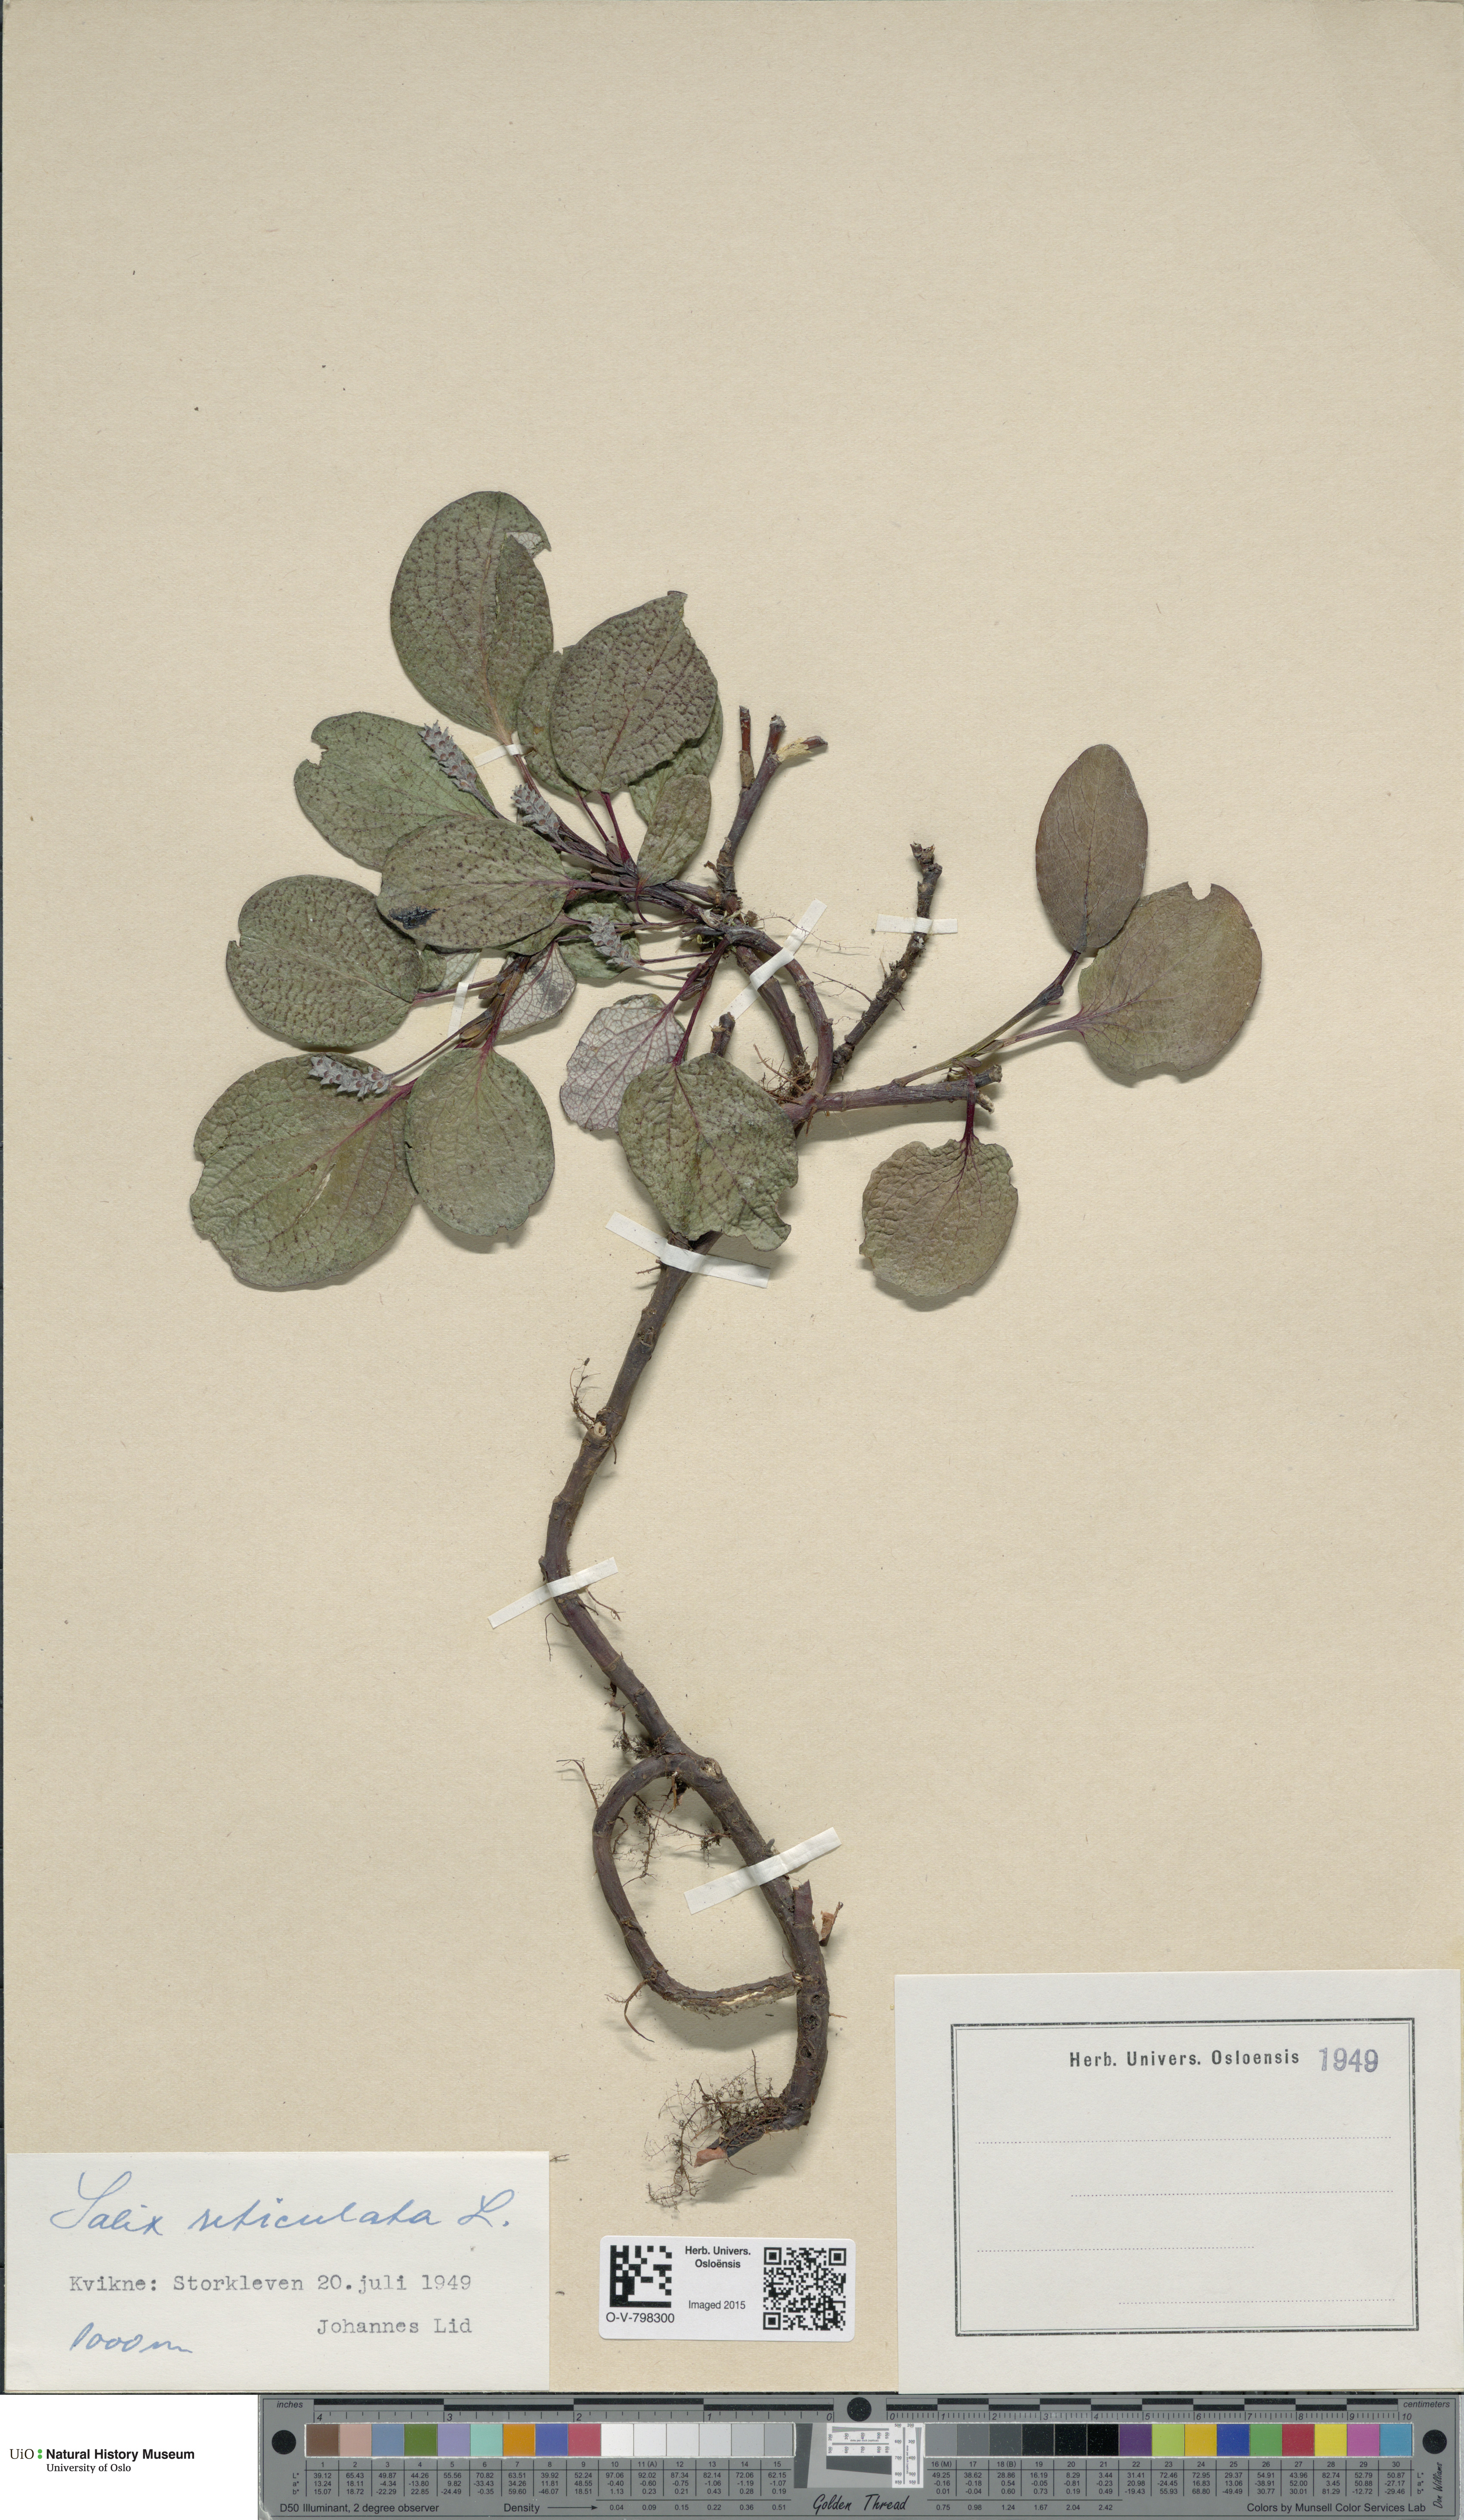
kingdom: Plantae
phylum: Tracheophyta
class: Magnoliopsida
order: Malpighiales
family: Salicaceae
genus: Salix
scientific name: Salix reticulata
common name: Net-leaved willow
